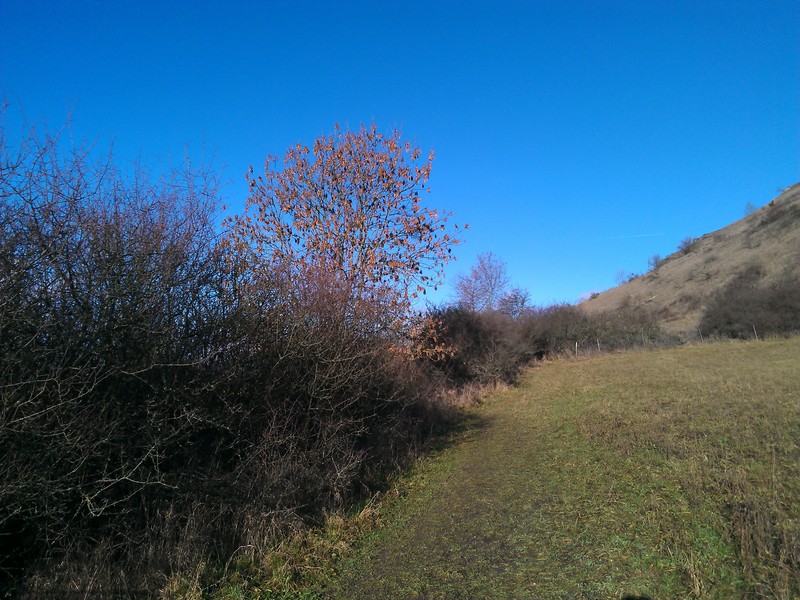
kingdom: Fungi
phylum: Ascomycota
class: Lecanoromycetes
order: Lecanorales
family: Parmeliaceae
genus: Melanohalea
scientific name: Melanohalea exasperata
